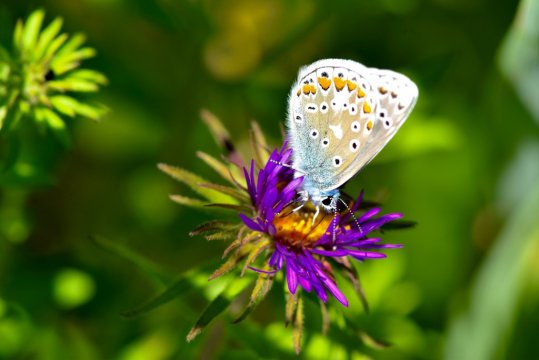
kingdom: Animalia
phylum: Arthropoda
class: Insecta
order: Lepidoptera
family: Lycaenidae
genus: Polyommatus
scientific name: Polyommatus icarus
